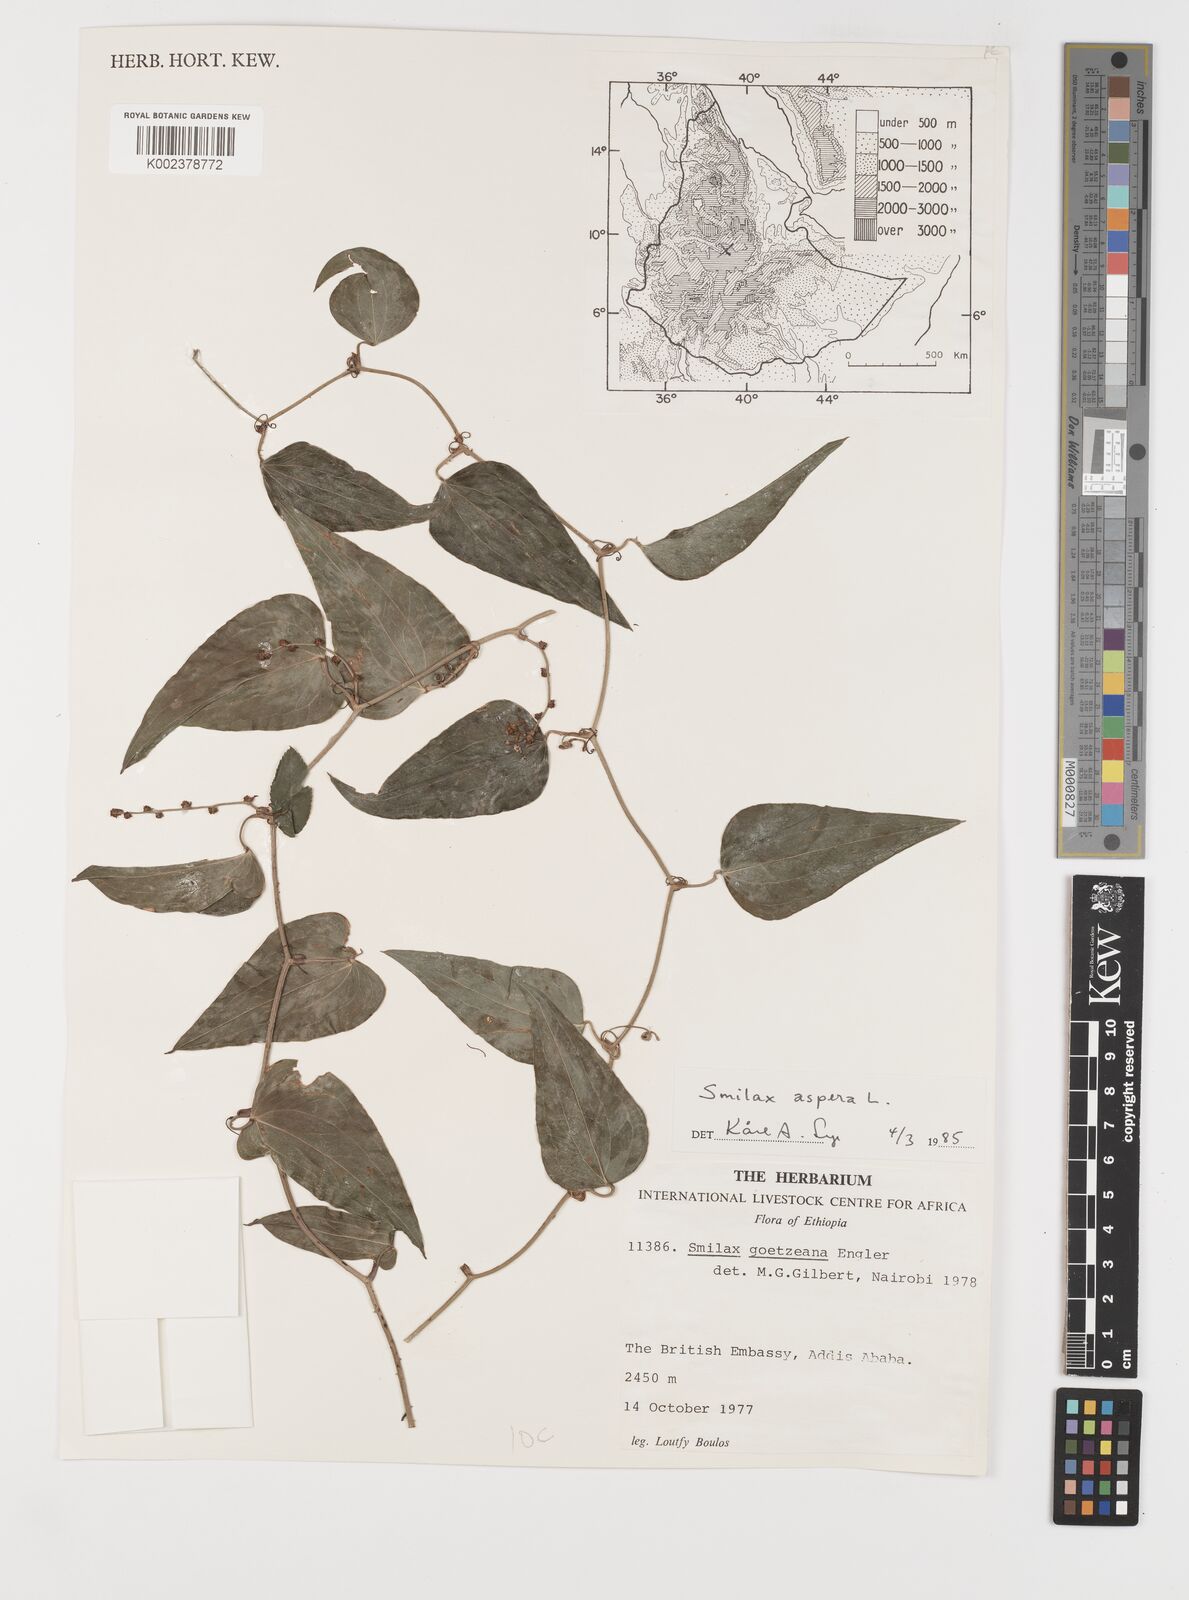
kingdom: Plantae
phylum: Tracheophyta
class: Liliopsida
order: Liliales
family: Smilacaceae
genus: Smilax
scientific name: Smilax aspera
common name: Common smilax
